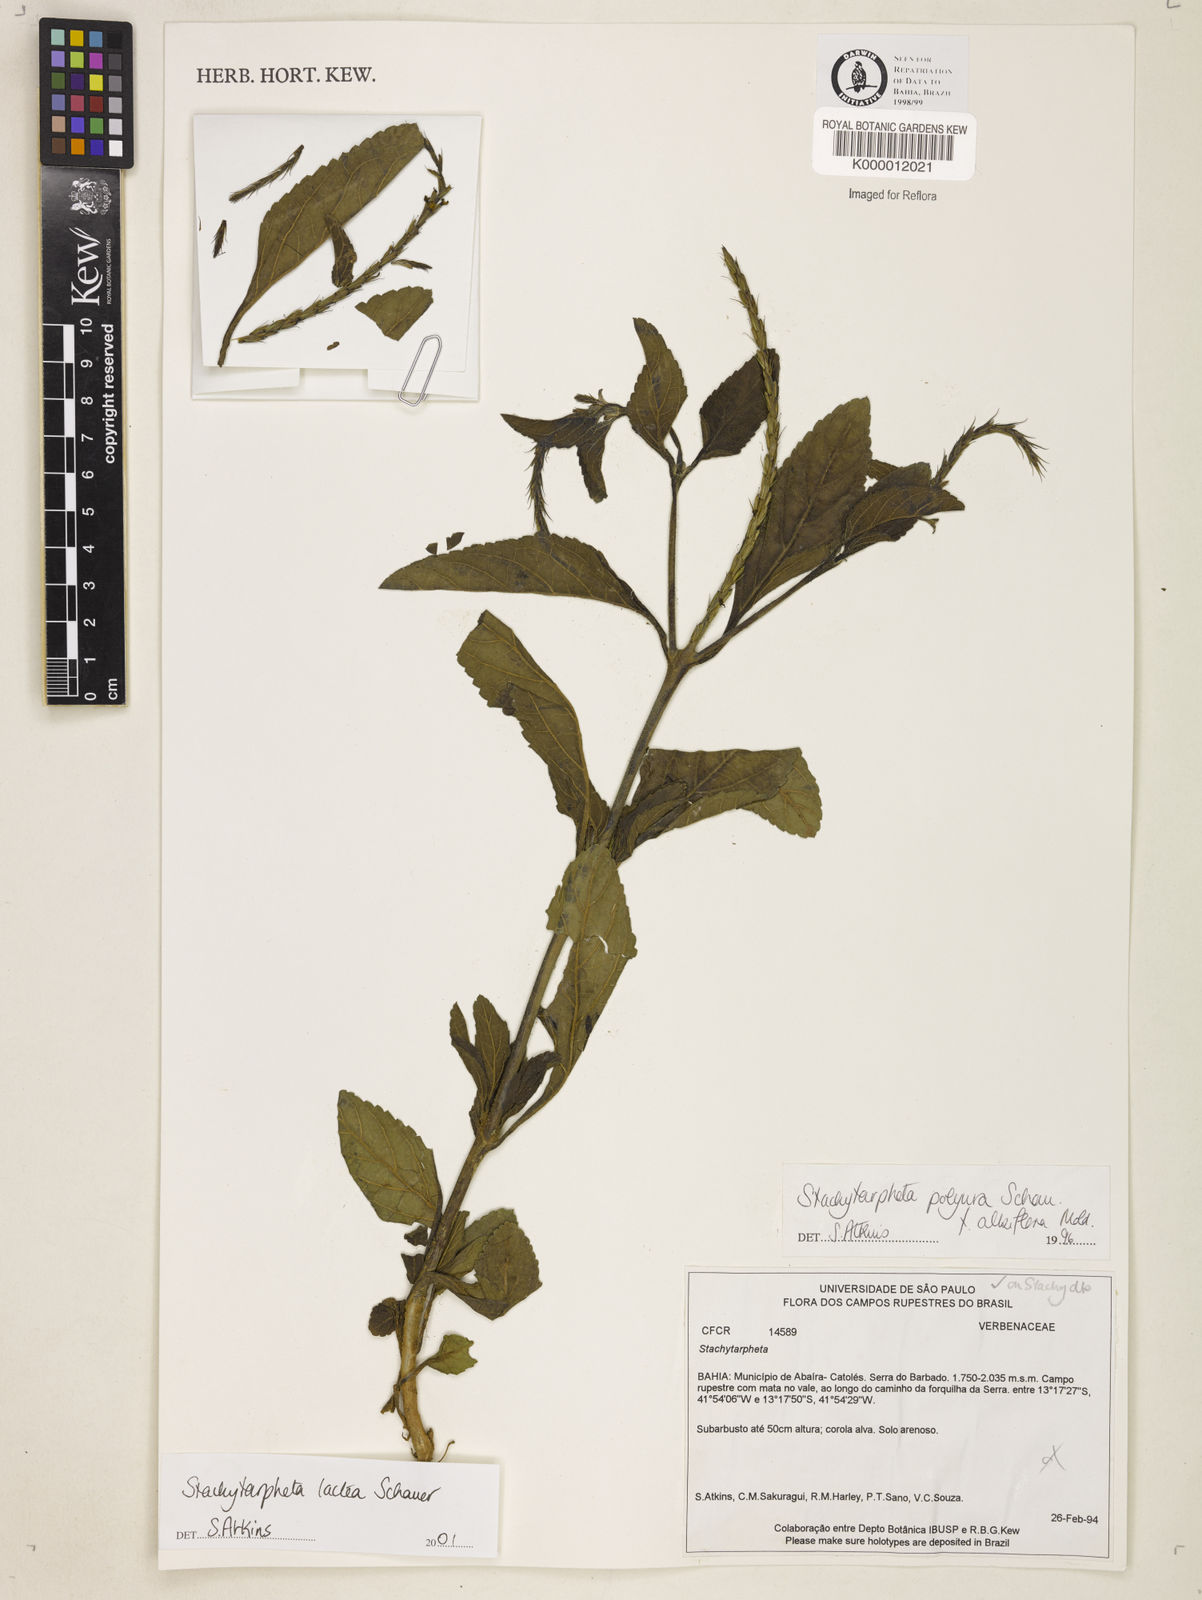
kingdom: Plantae
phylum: Tracheophyta
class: Magnoliopsida
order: Lamiales
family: Verbenaceae
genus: Stachytarpheta
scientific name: Stachytarpheta polyura
